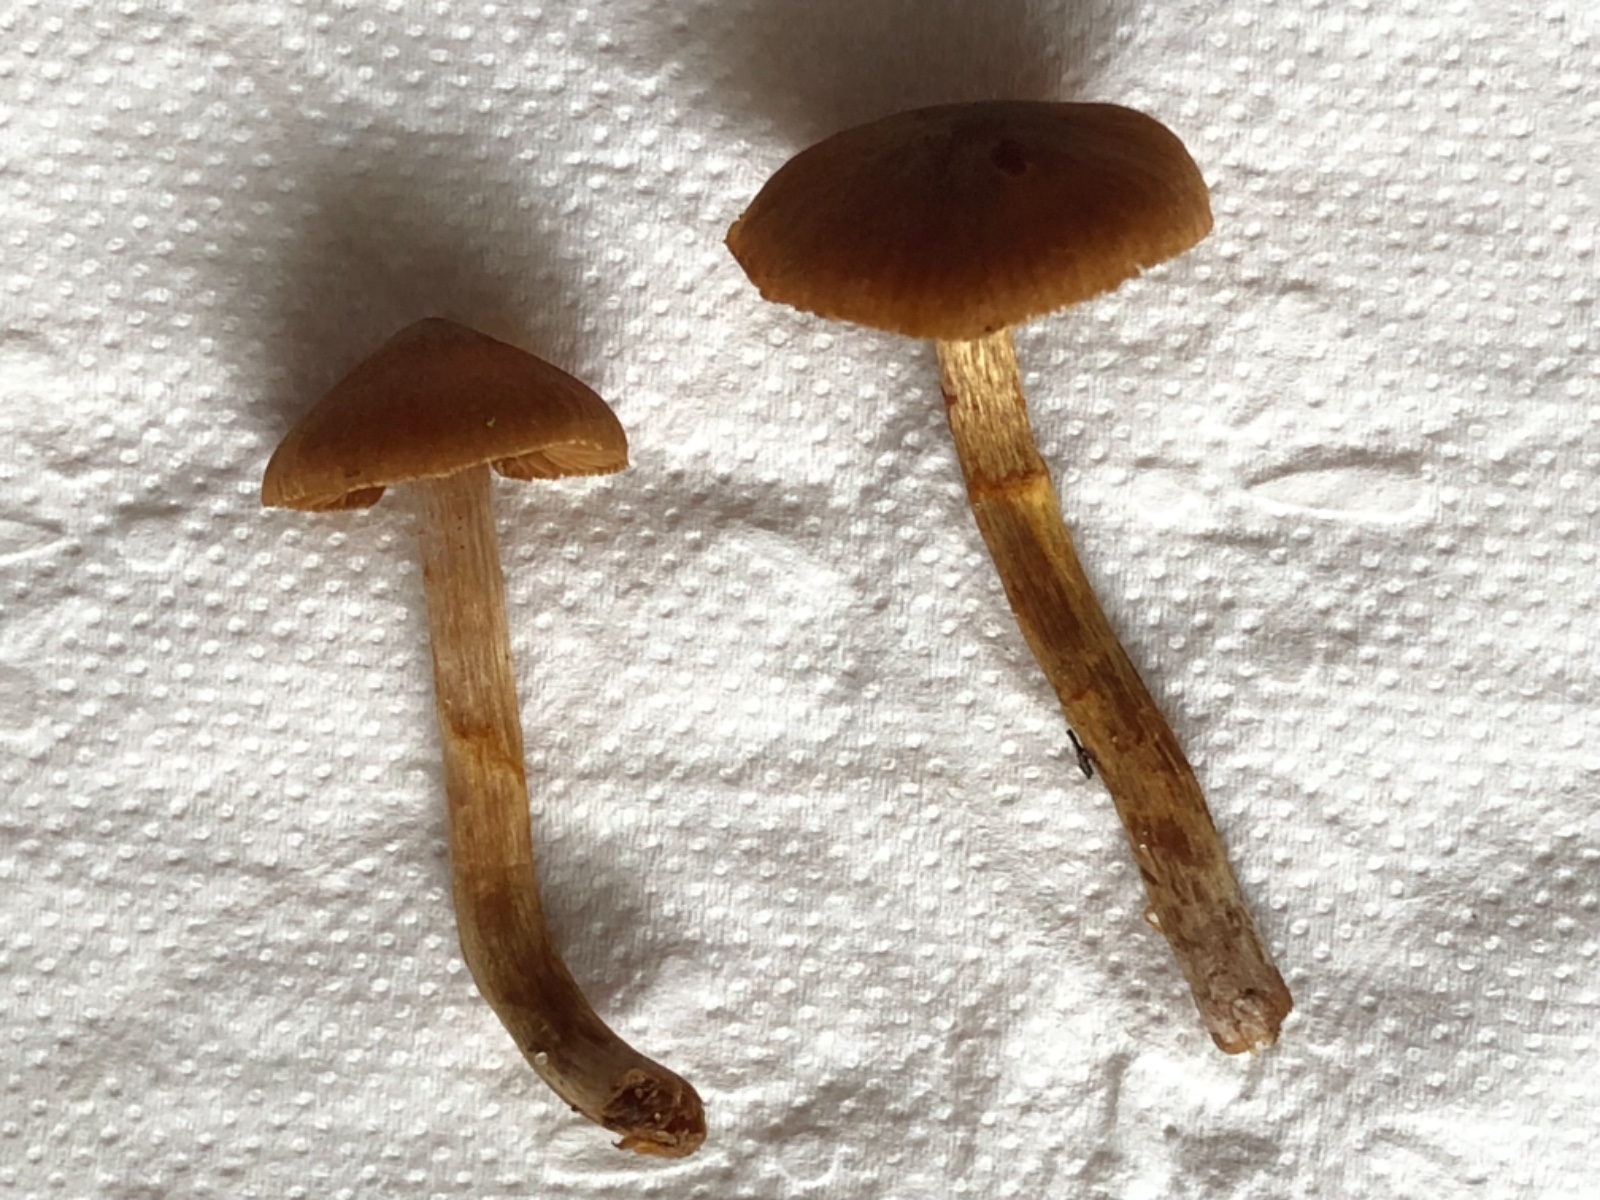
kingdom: Fungi
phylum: Basidiomycota
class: Agaricomycetes
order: Agaricales
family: Cortinariaceae
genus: Cortinarius
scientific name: Cortinarius saniosus
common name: gultrævlet slørhat
